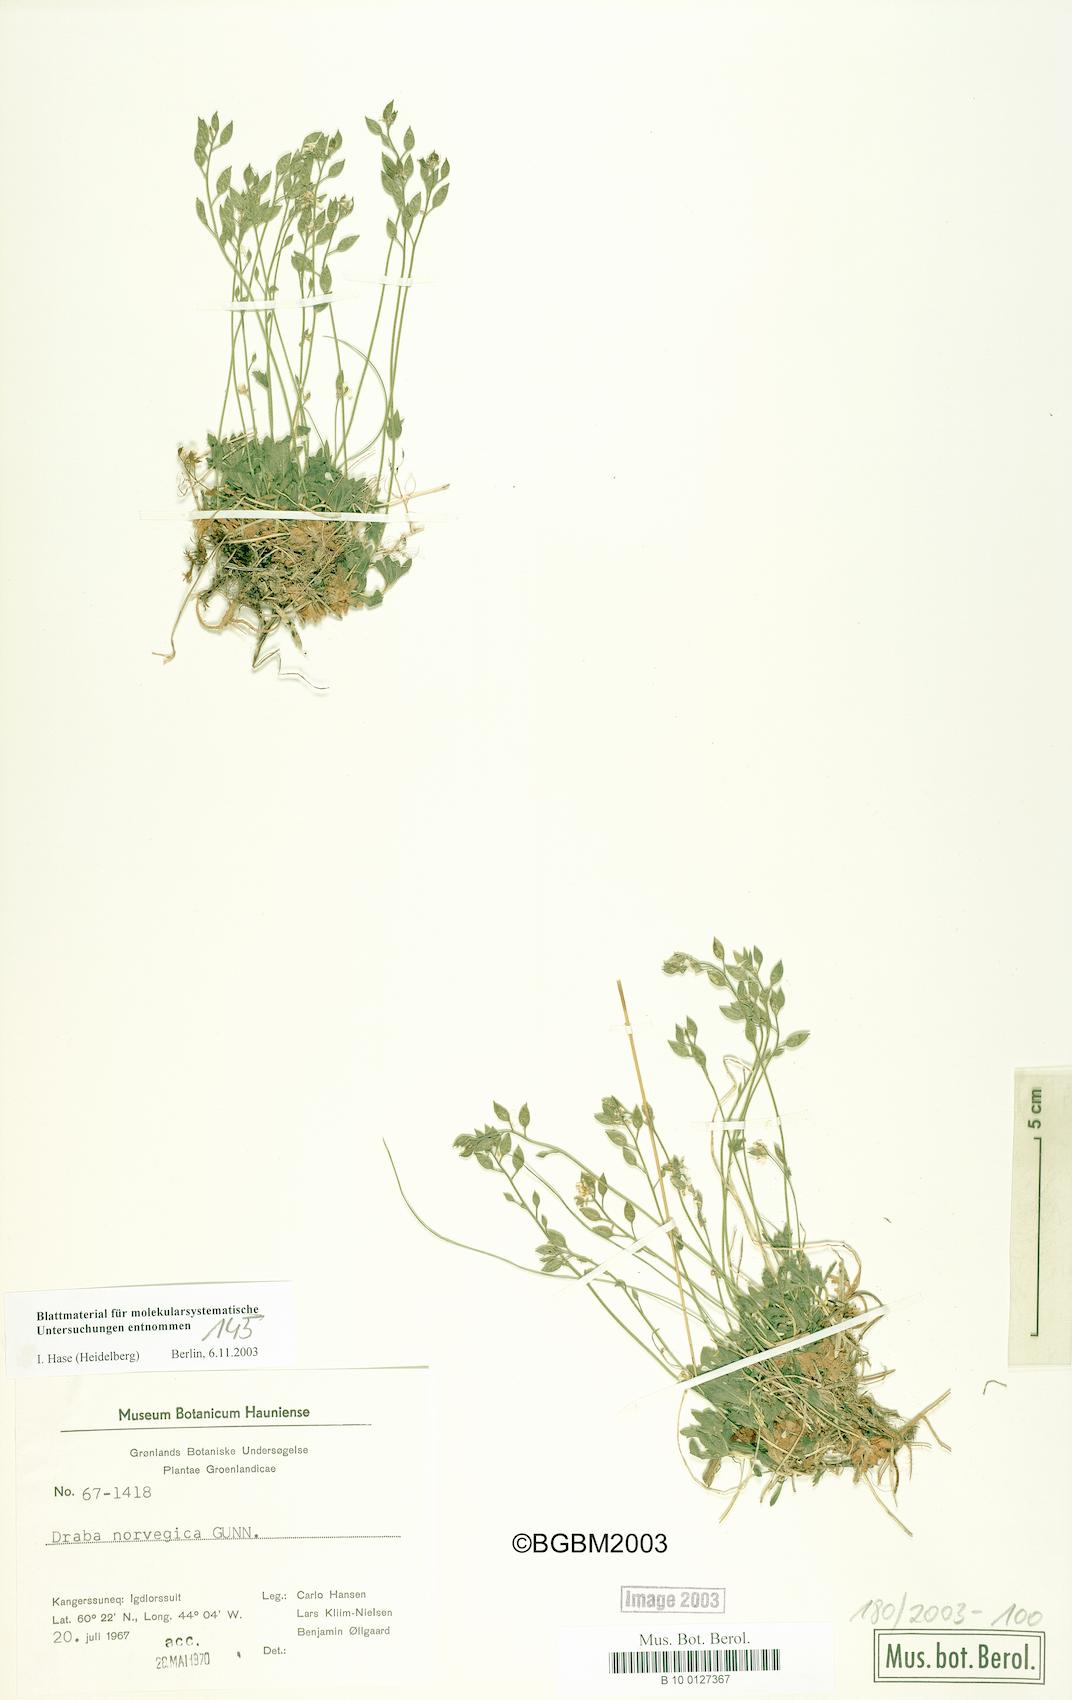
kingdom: Plantae
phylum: Tracheophyta
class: Magnoliopsida
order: Brassicales
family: Brassicaceae
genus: Draba
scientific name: Draba norvegica
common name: Rock whitlowgrass
